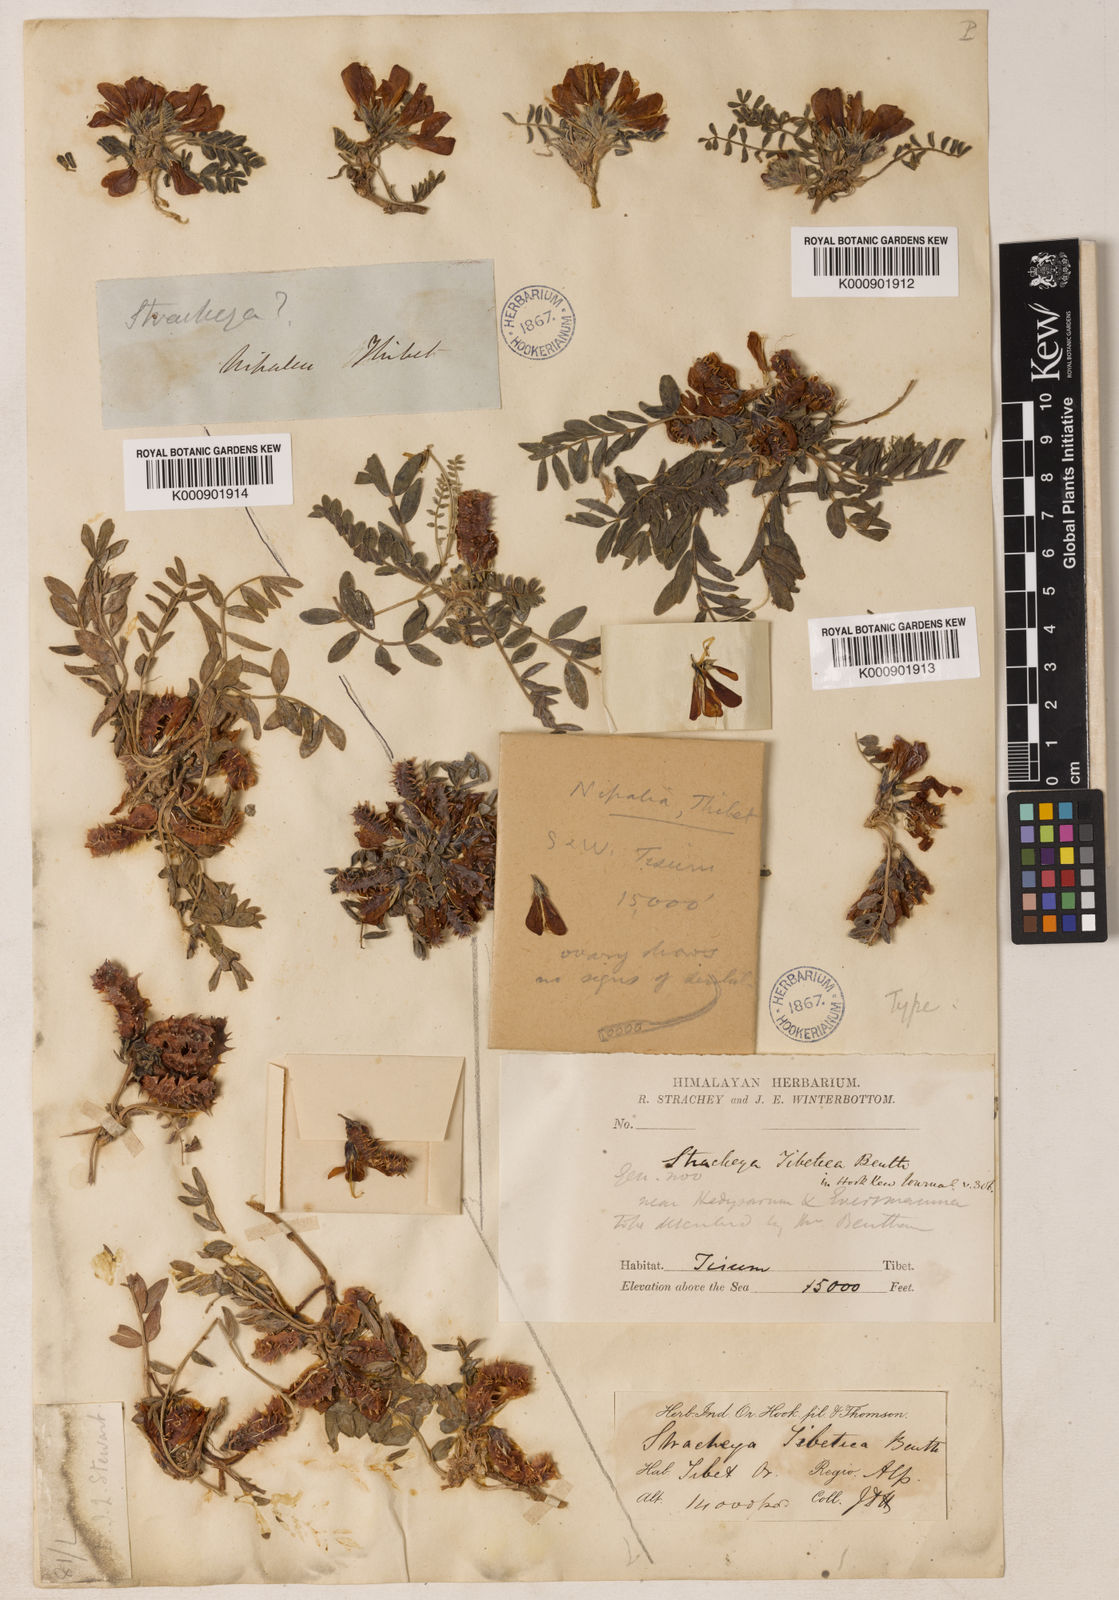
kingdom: Plantae
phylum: Tracheophyta
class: Magnoliopsida
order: Fabales
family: Fabaceae
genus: Hedysarum
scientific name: Hedysarum tibeticum
